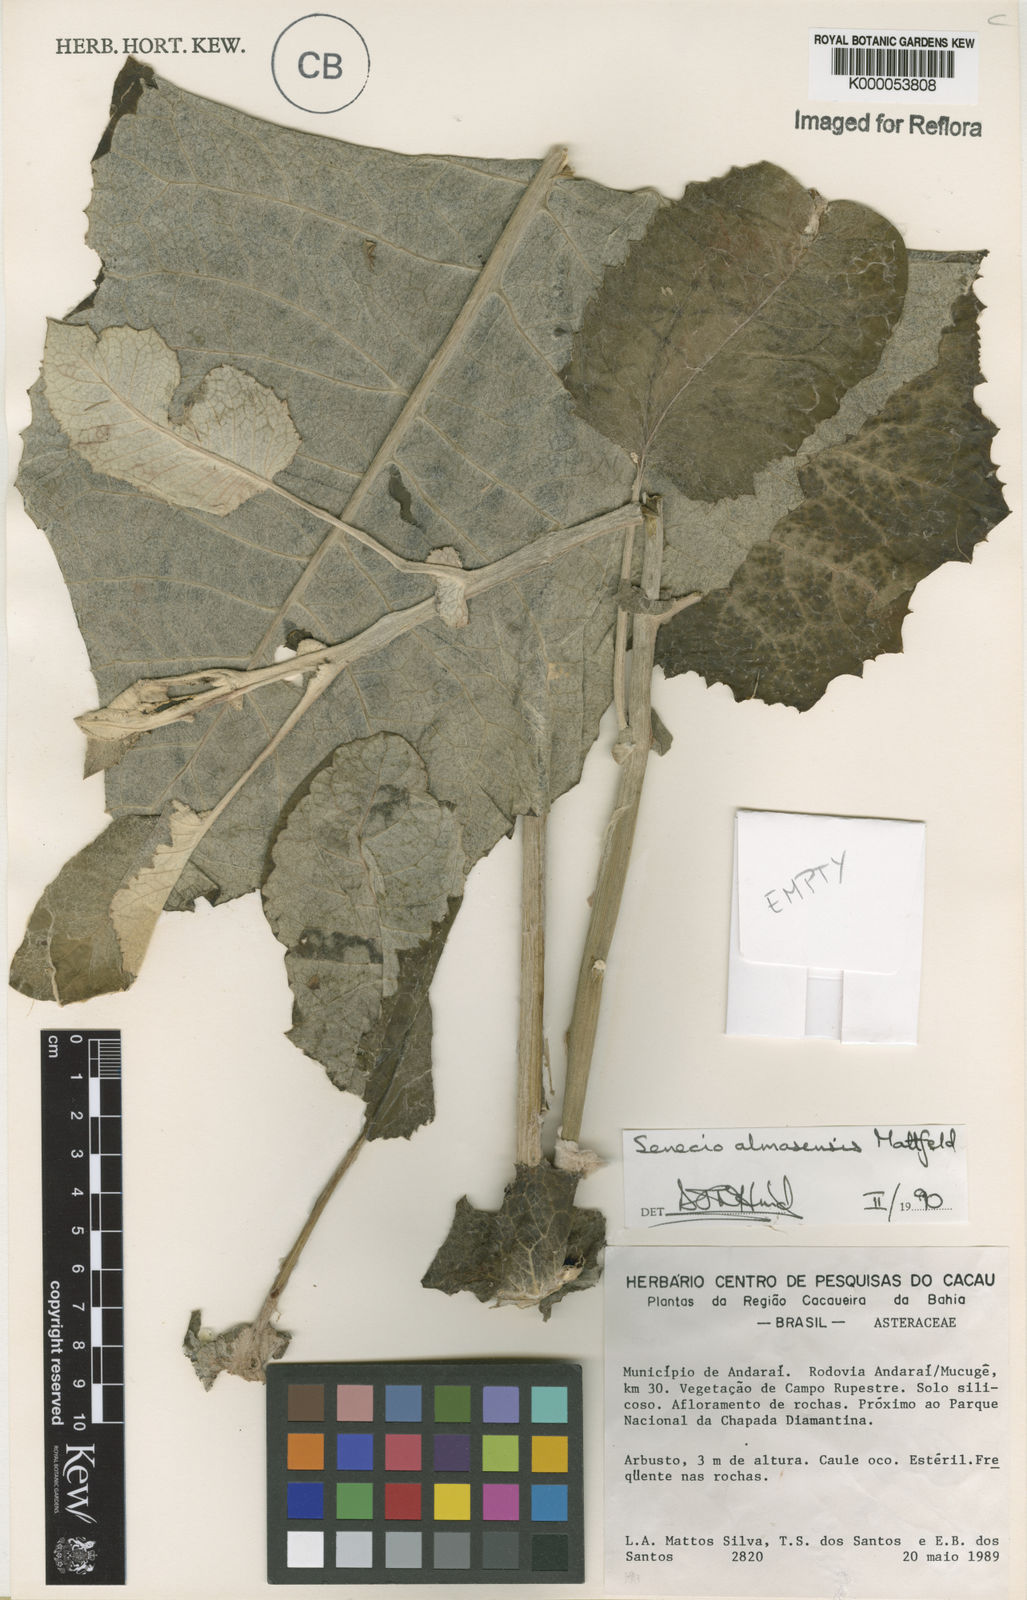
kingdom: Plantae
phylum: Tracheophyta
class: Magnoliopsida
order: Asterales
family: Asteraceae
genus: Senecio
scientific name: Senecio almasensis
